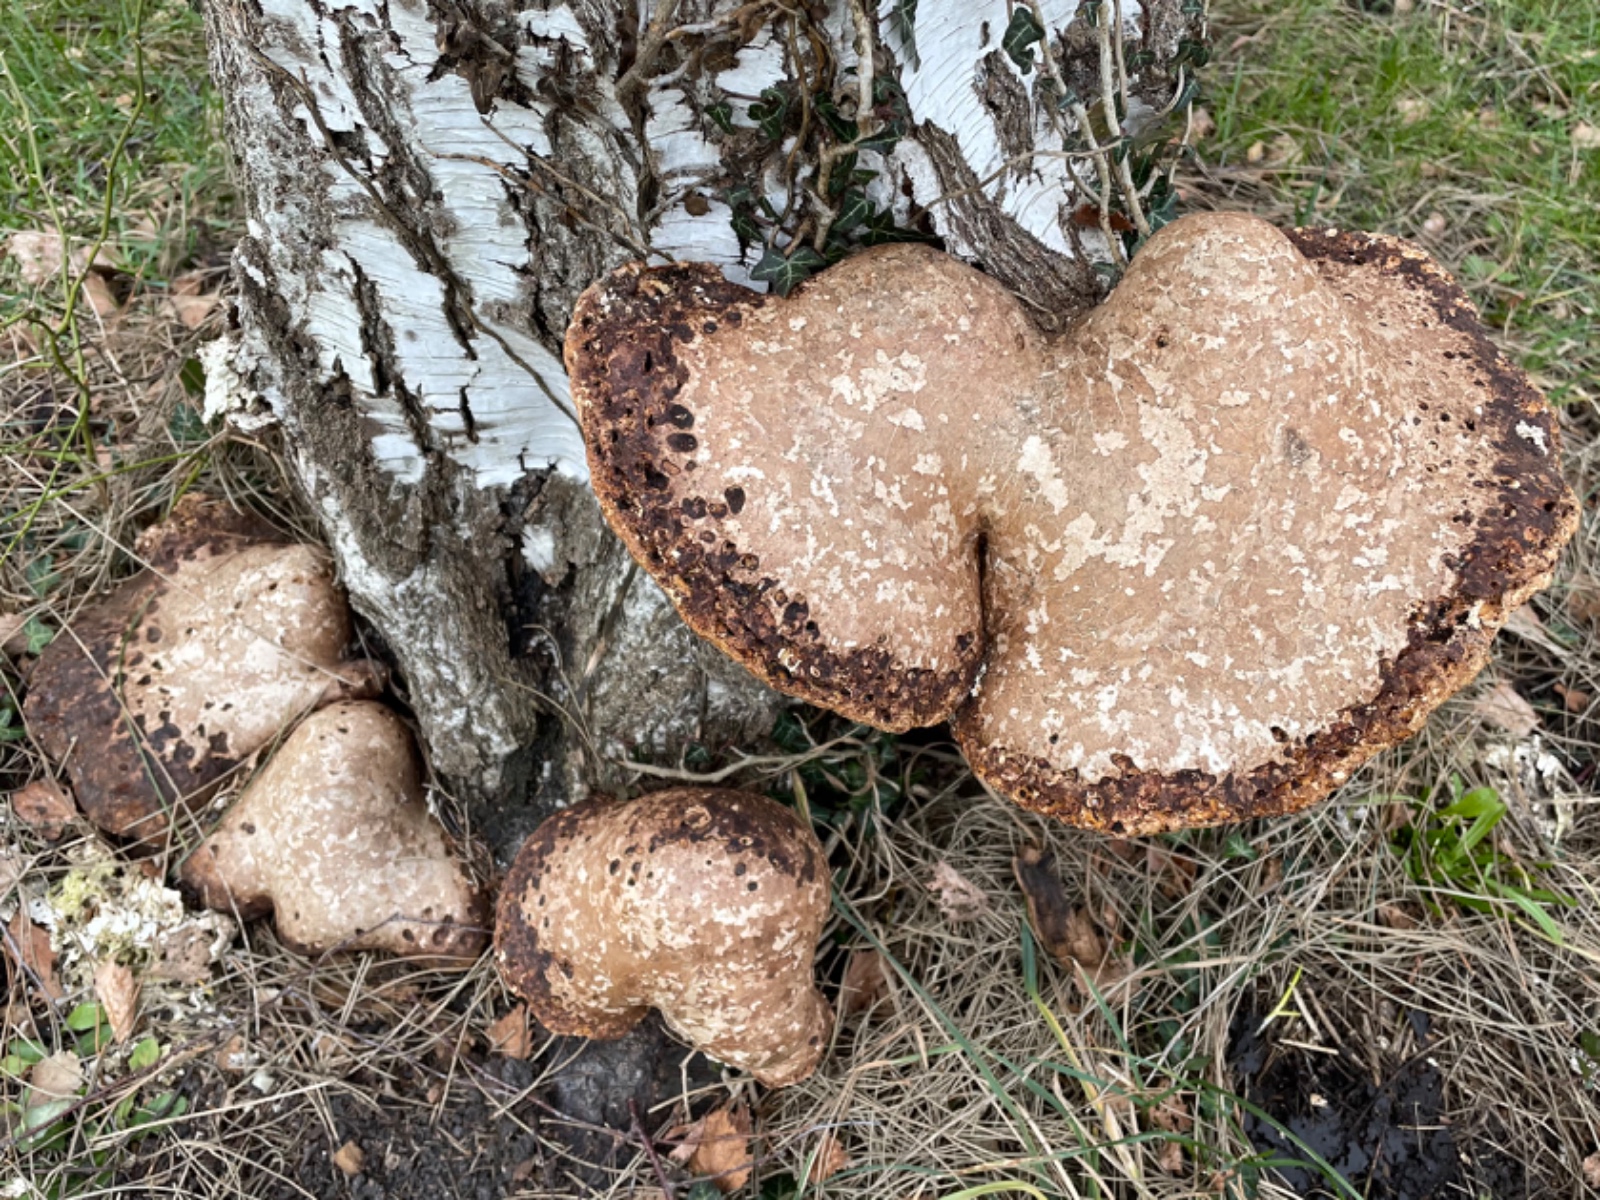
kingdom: Fungi
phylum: Basidiomycota
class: Agaricomycetes
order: Polyporales
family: Fomitopsidaceae
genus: Fomitopsis
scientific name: Fomitopsis betulina
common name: birkeporesvamp
